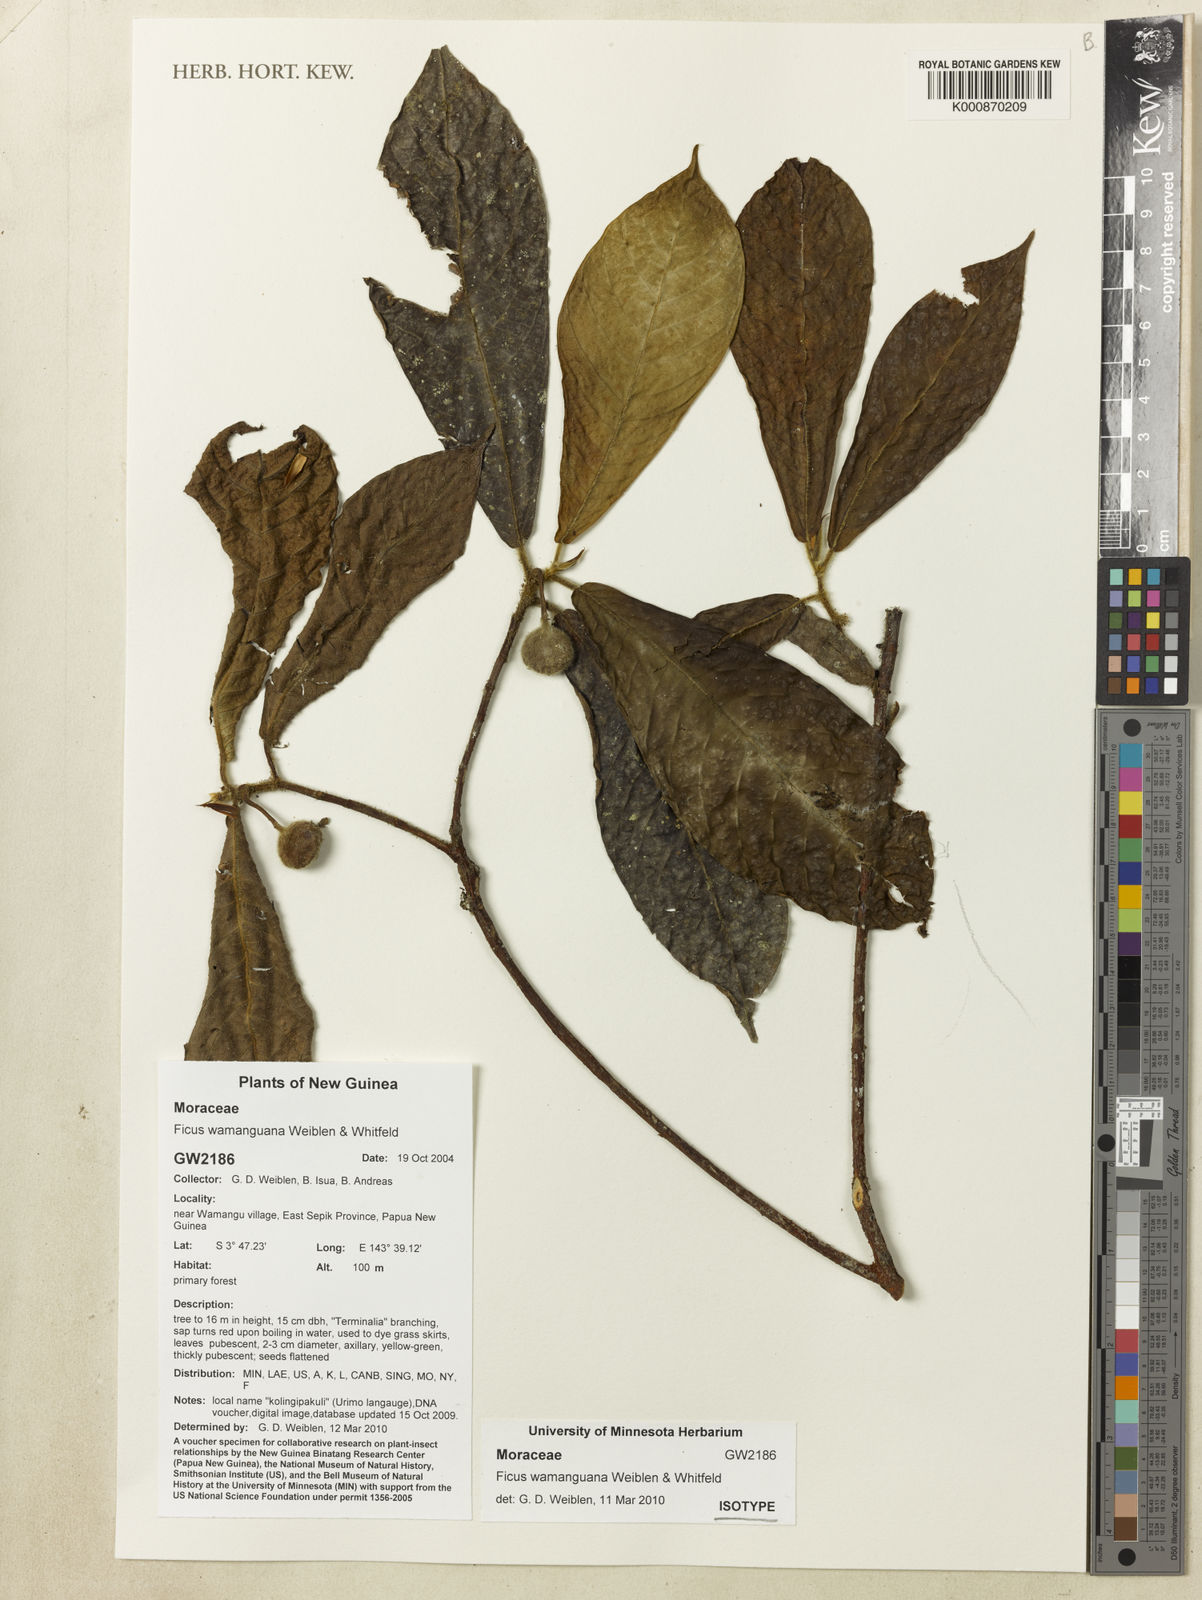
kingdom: Plantae
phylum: Tracheophyta
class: Magnoliopsida
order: Rosales
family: Moraceae
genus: Ficus
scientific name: Ficus wamanguana
